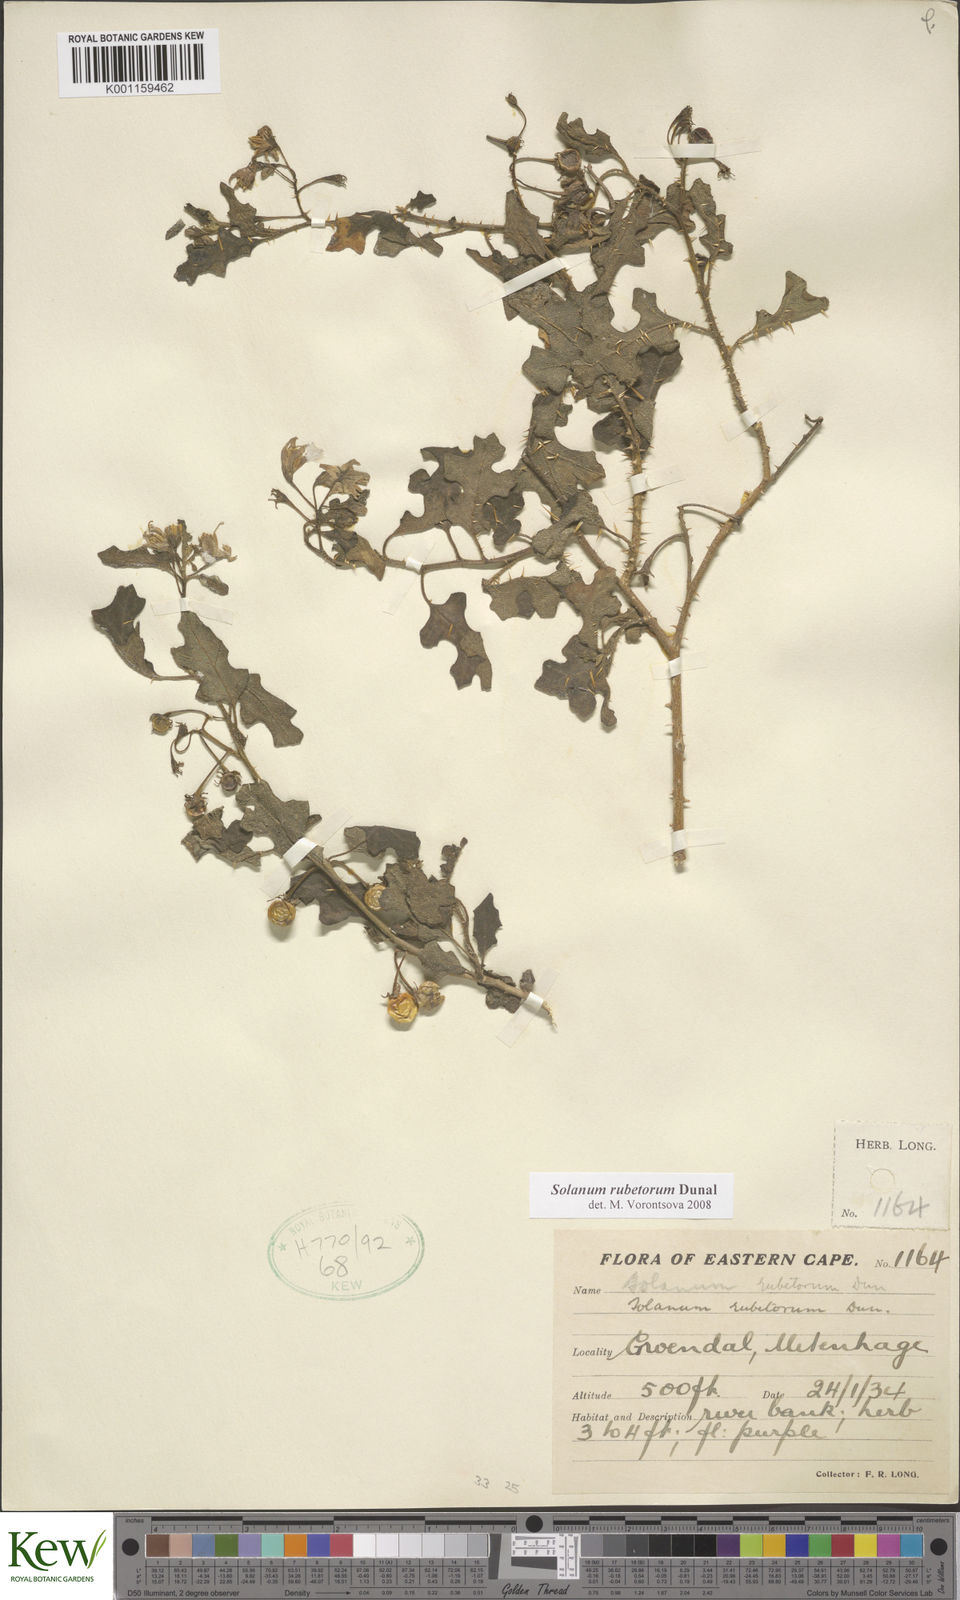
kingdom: Plantae
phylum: Tracheophyta
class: Magnoliopsida
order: Solanales
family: Solanaceae
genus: Solanum
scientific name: Solanum rubetorum
